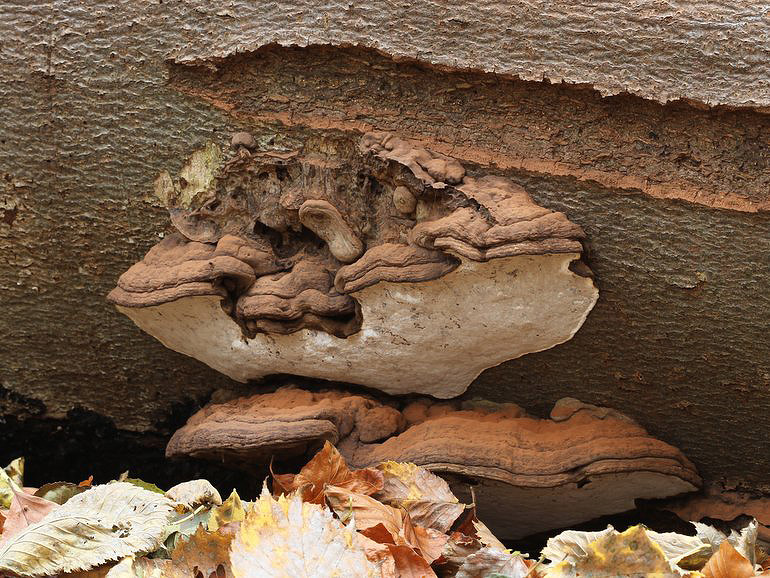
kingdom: Fungi
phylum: Basidiomycota
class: Agaricomycetes
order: Polyporales
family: Polyporaceae
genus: Ganoderma
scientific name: Ganoderma applanatum
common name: flad lakporesvamp
